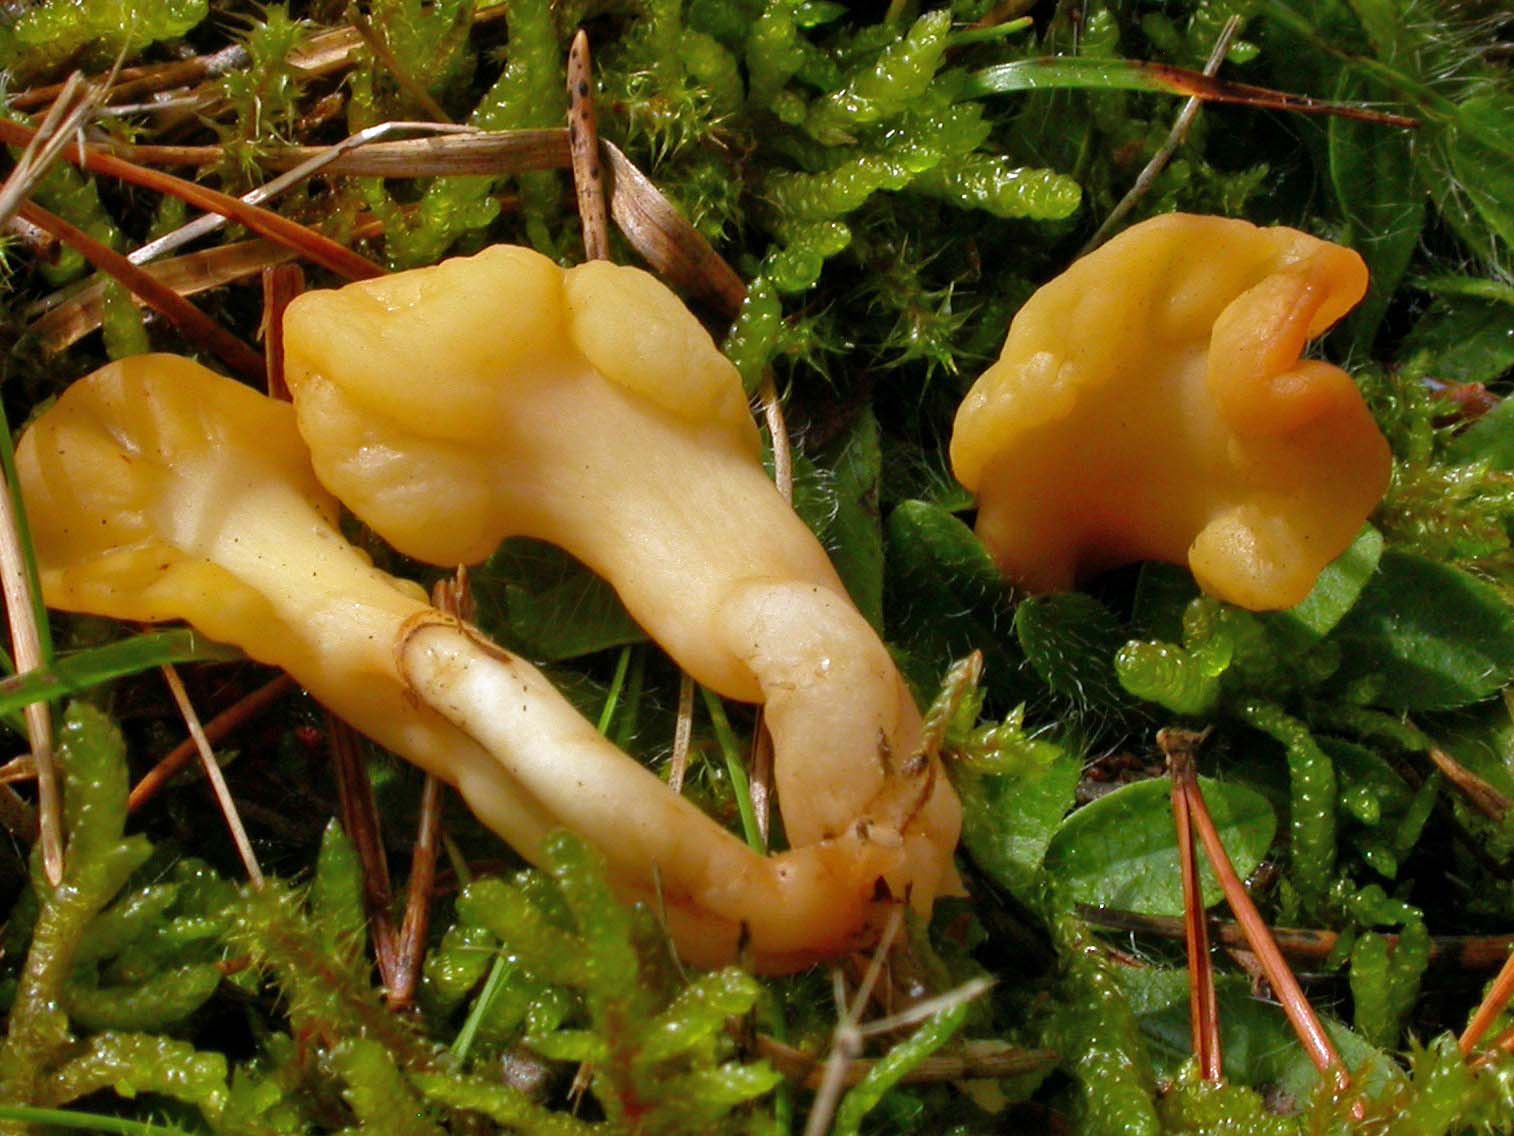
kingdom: Fungi
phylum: Ascomycota
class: Leotiomycetes
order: Rhytismatales
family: Cudoniaceae
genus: Spathularia
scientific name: Spathularia flavida
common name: gul spatelsvamp
